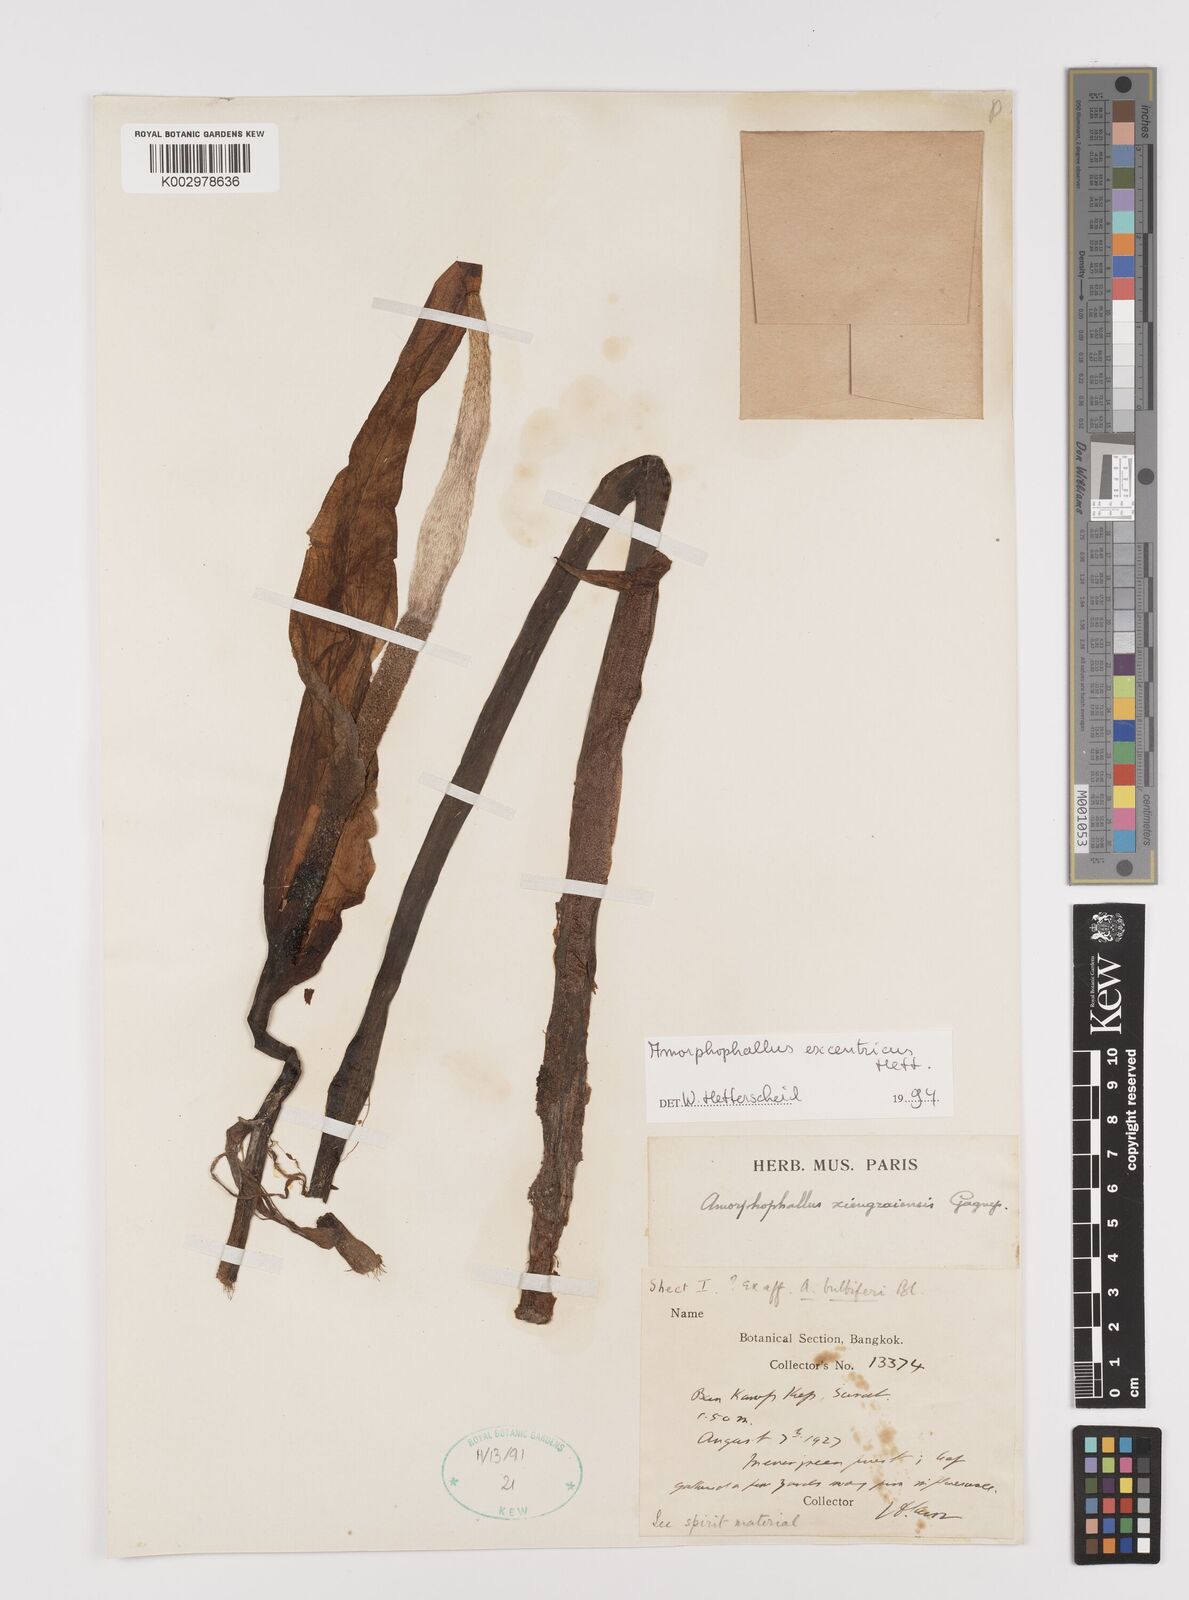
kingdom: Plantae
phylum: Tracheophyta
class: Liliopsida
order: Alismatales
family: Araceae
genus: Amorphophallus
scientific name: Amorphophallus excentricus
